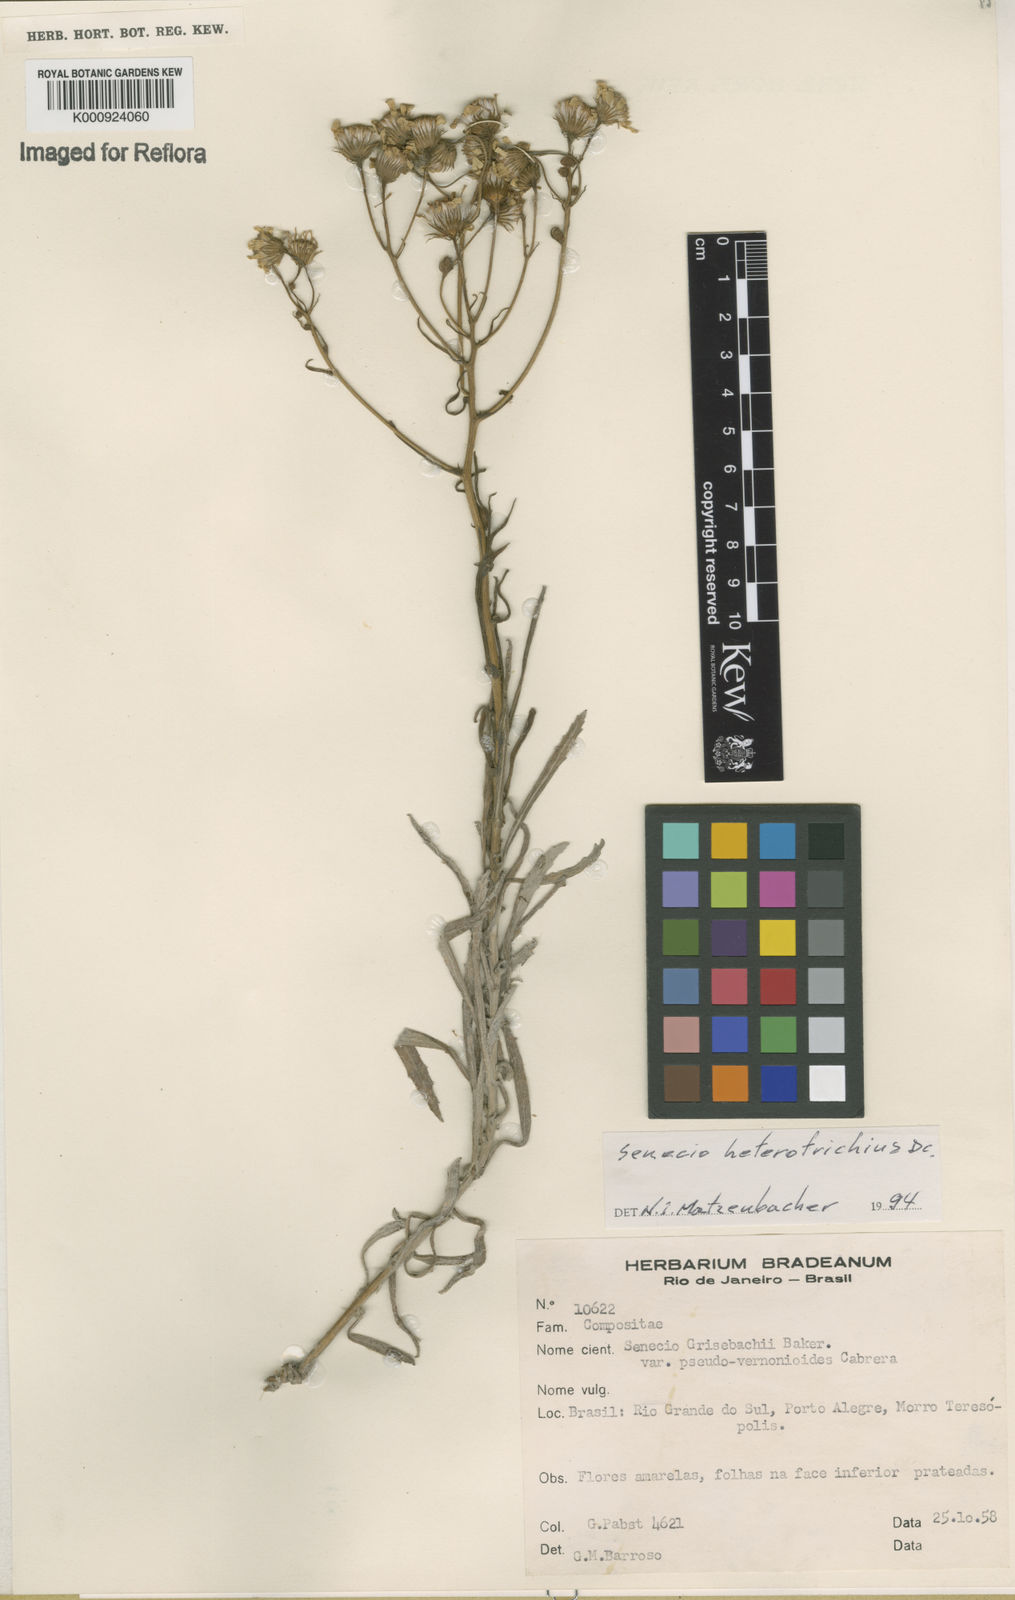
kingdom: Plantae
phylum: Tracheophyta
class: Magnoliopsida
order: Asterales
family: Asteraceae
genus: Senecio
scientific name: Senecio heterotrichius
